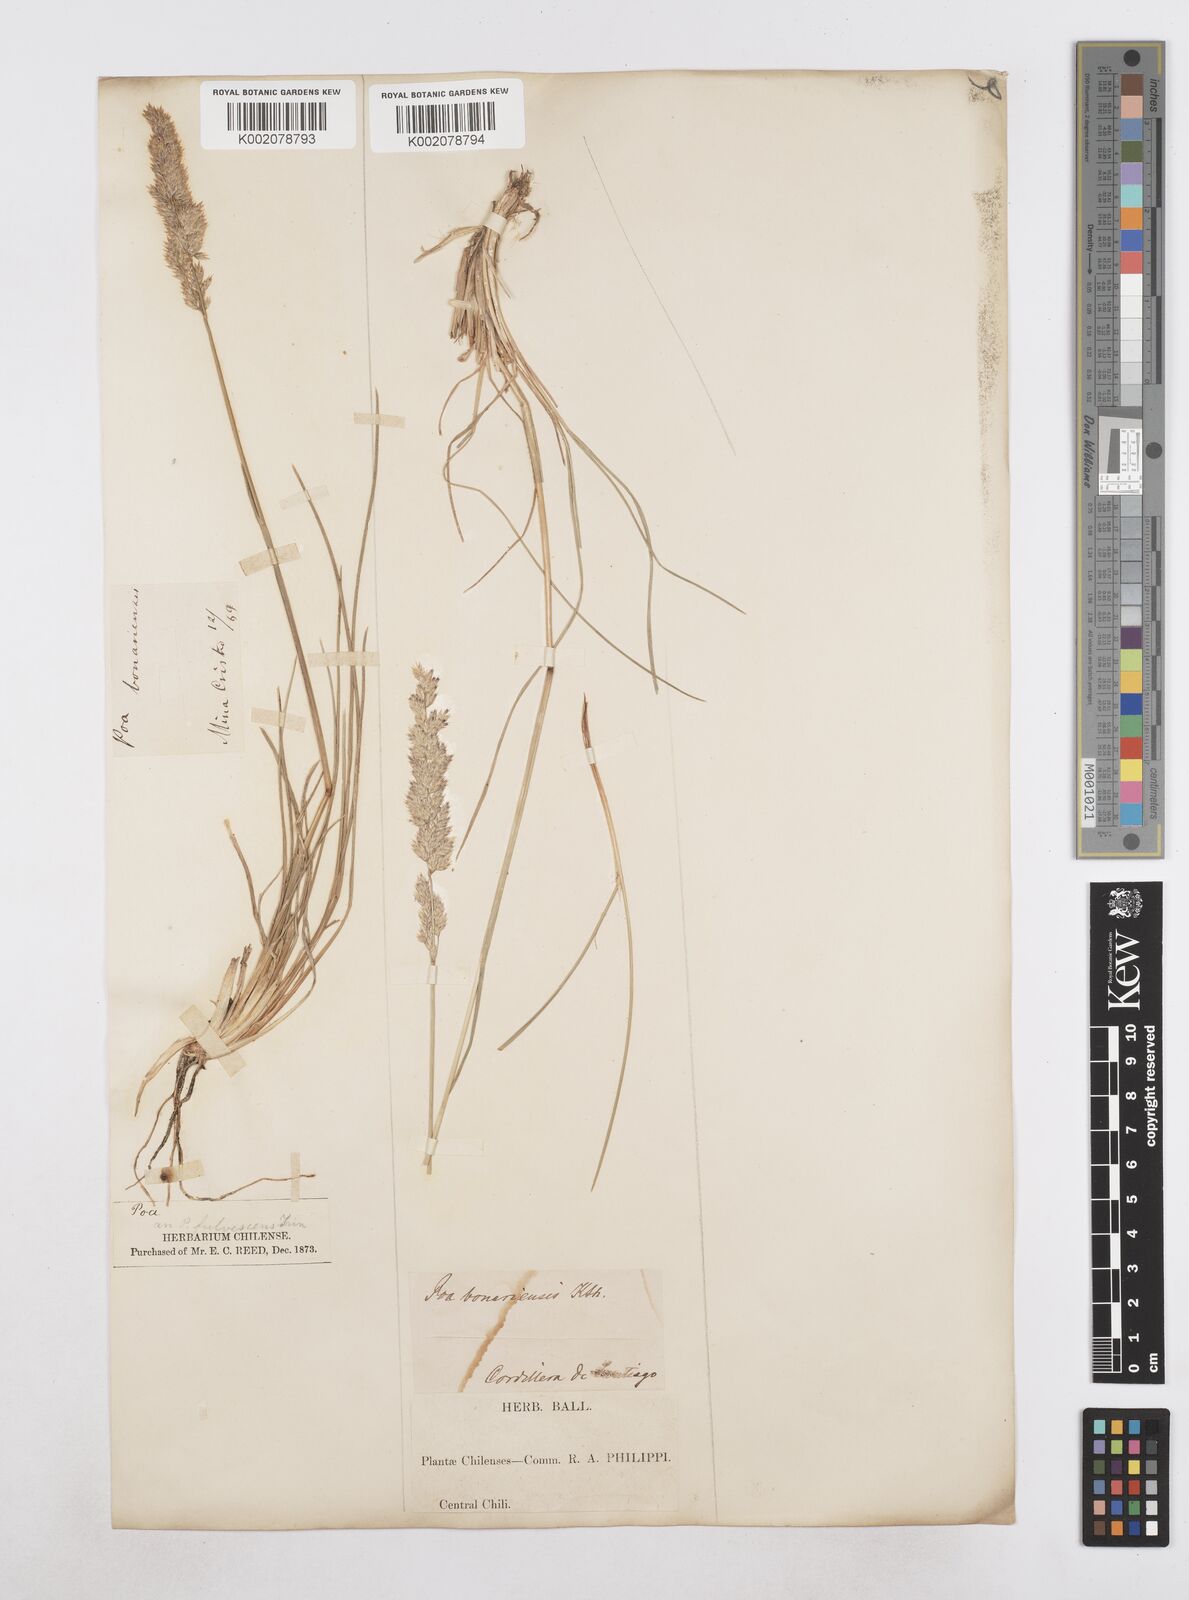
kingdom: Plantae
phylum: Tracheophyta
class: Liliopsida
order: Poales
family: Poaceae
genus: Poa
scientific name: Poa
